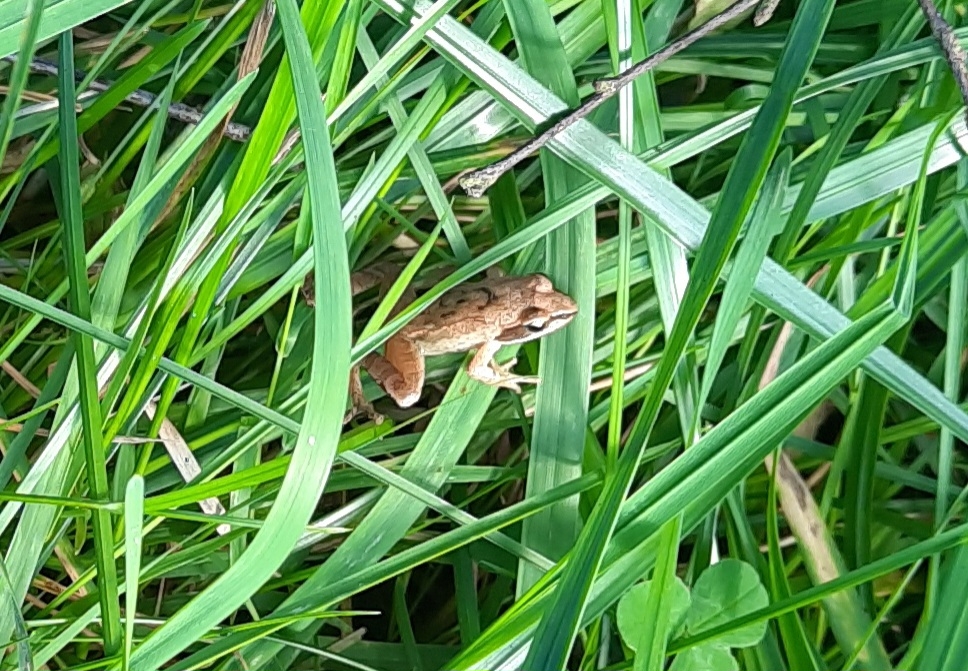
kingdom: Animalia
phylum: Chordata
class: Amphibia
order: Anura
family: Ranidae
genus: Rana
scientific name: Rana
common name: Rana
